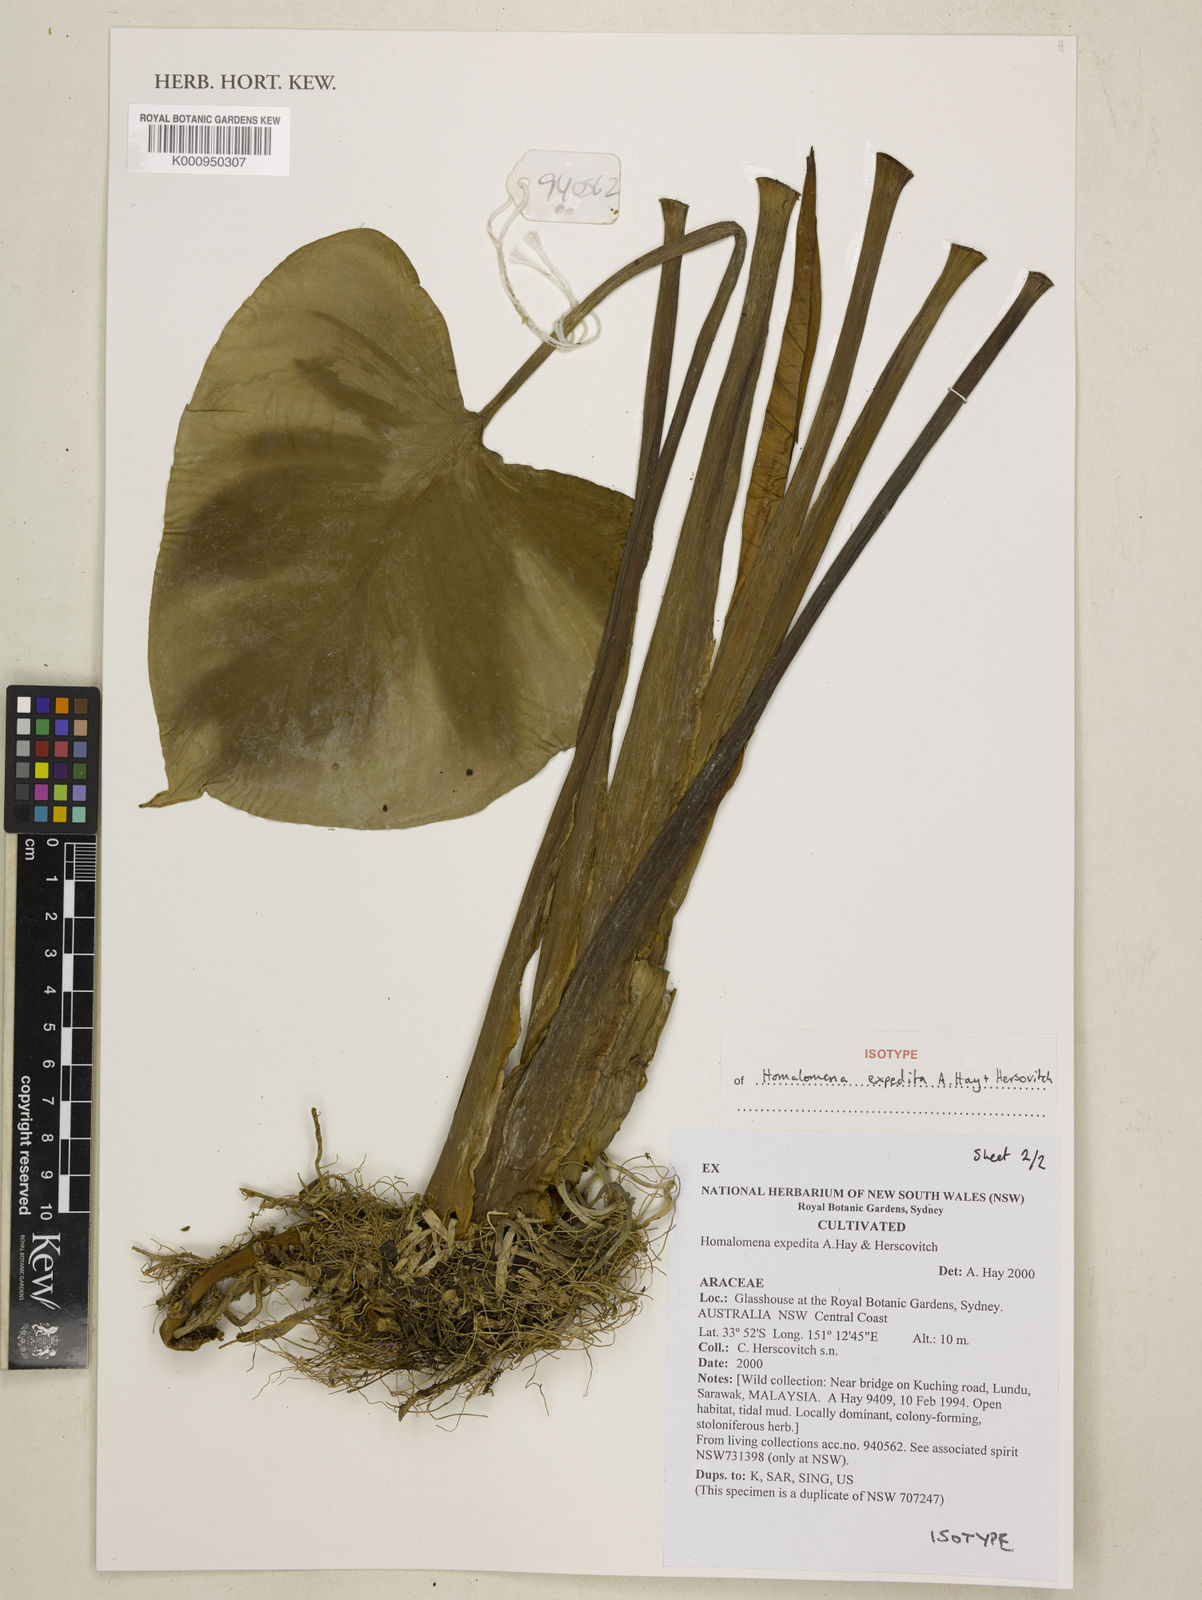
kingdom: Plantae
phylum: Tracheophyta
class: Liliopsida
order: Alismatales
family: Araceae
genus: Homalomena
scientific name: Homalomena expedita
